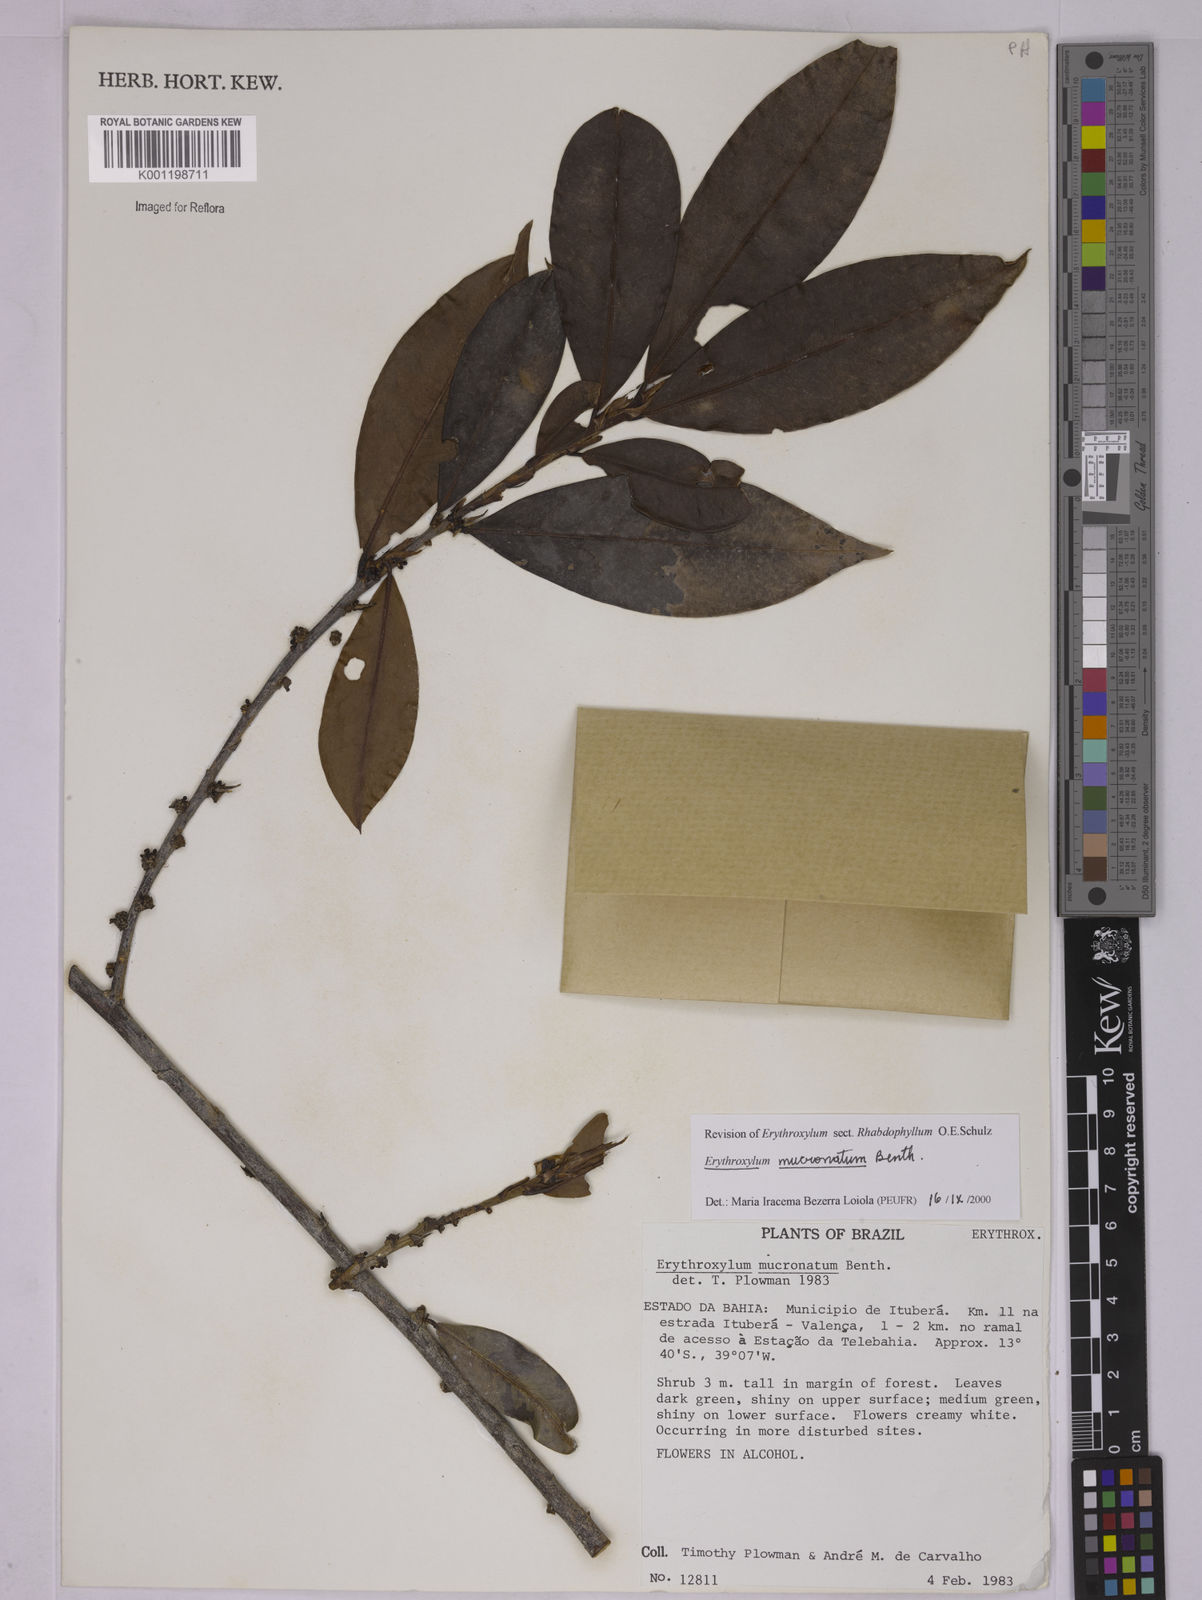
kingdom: Plantae
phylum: Tracheophyta
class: Magnoliopsida
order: Malpighiales
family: Erythroxylaceae
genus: Erythroxylum
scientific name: Erythroxylum mucronatum
